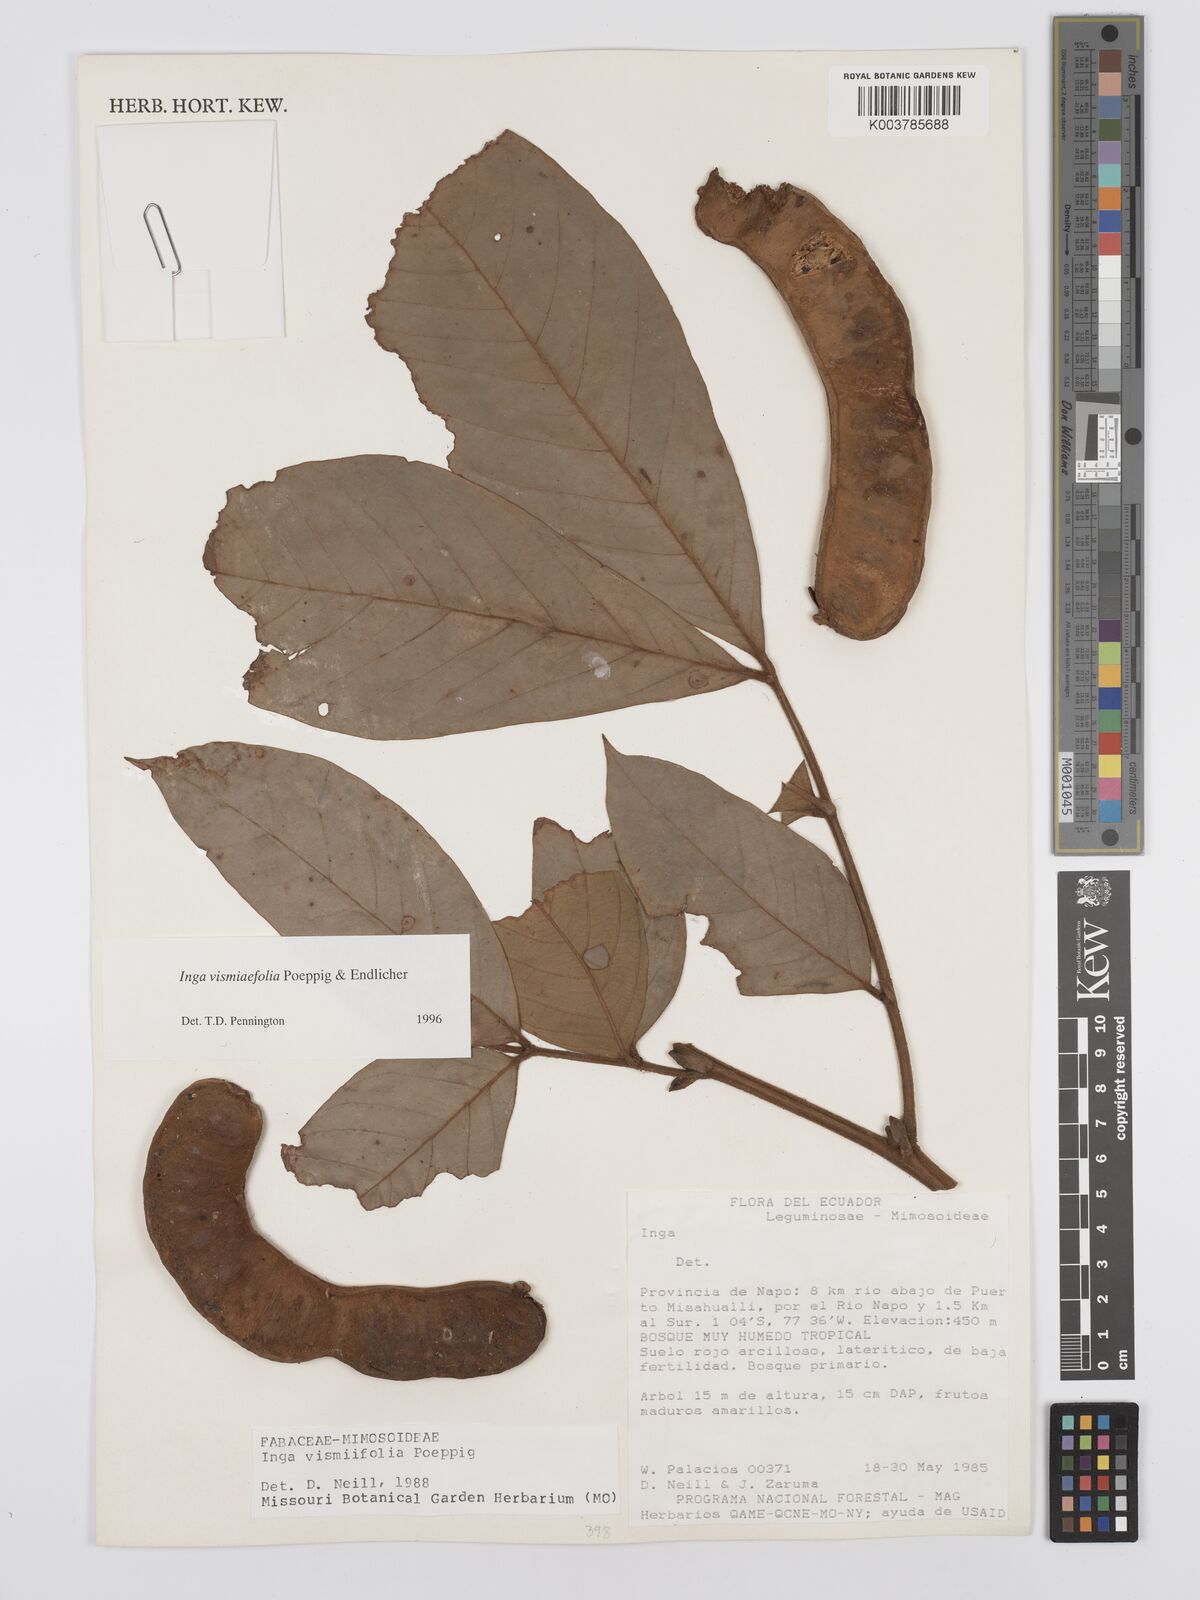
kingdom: Plantae
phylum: Tracheophyta
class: Magnoliopsida
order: Fabales
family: Fabaceae
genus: Inga
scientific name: Inga vismiifolia
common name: Howler monkey inga
